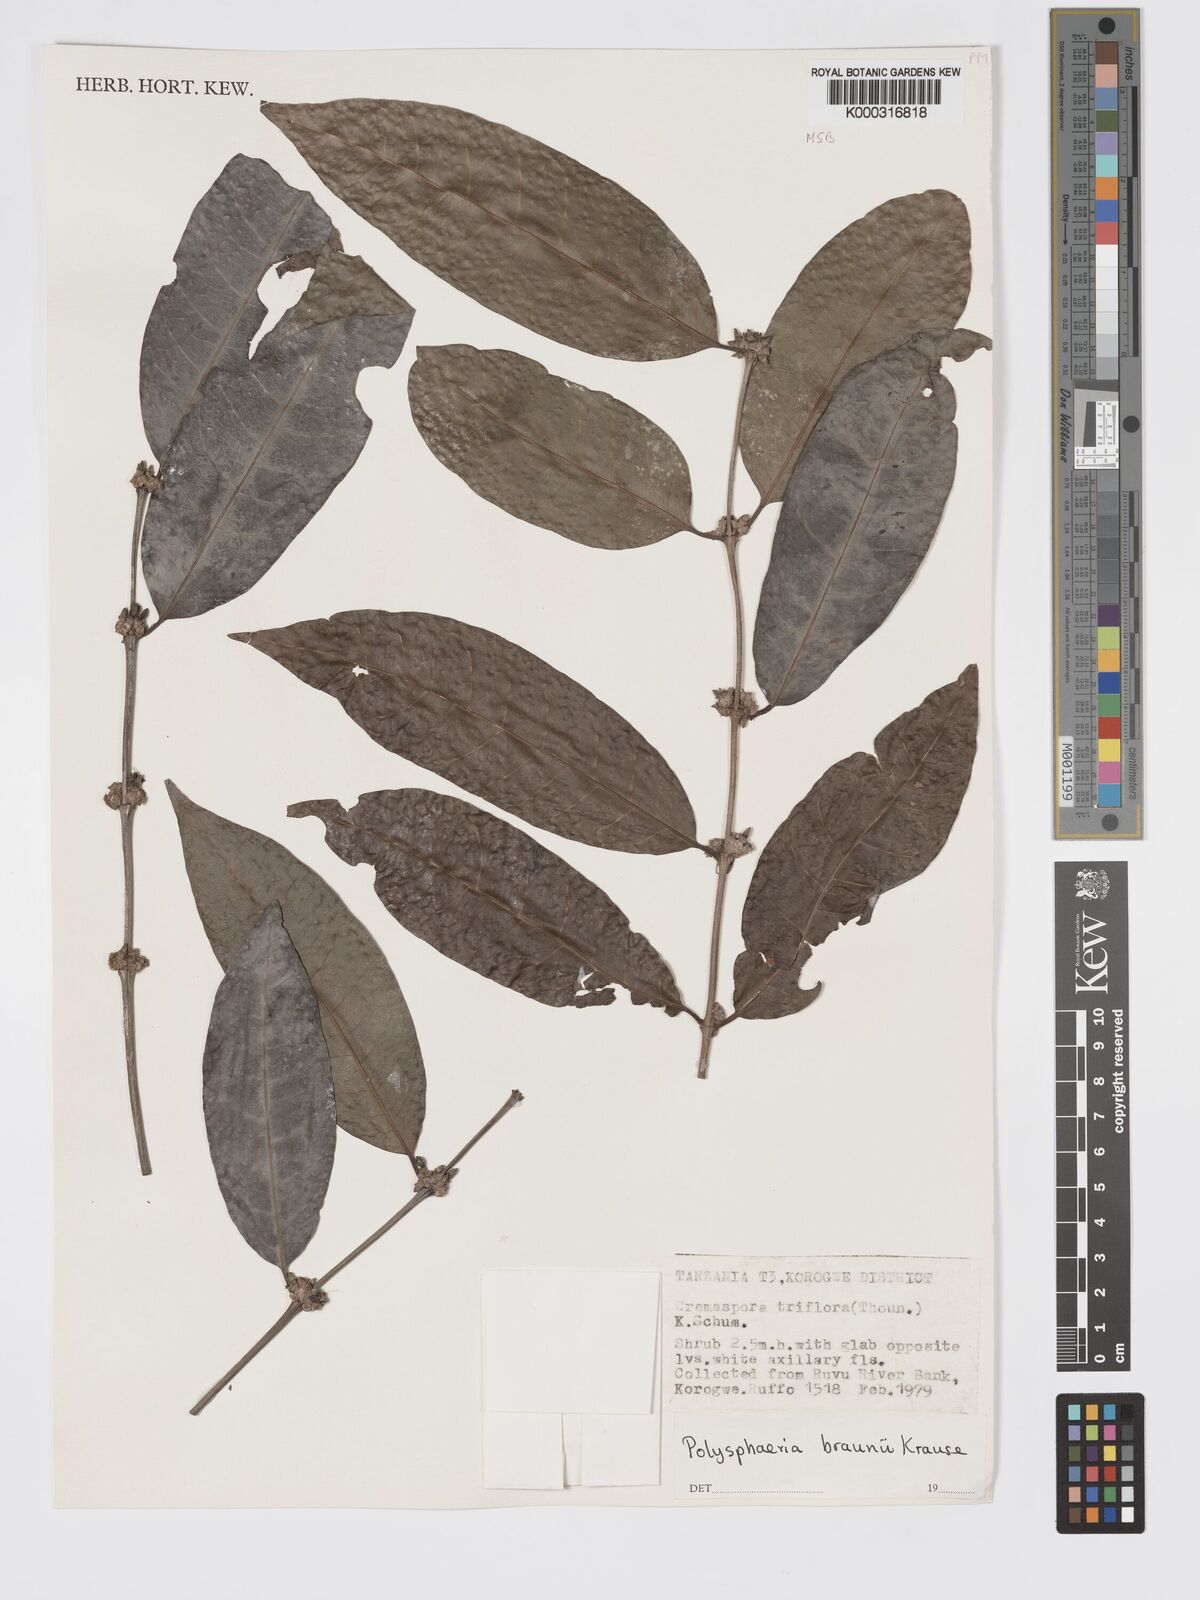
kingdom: Plantae
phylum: Tracheophyta
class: Magnoliopsida
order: Gentianales
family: Rubiaceae
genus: Polysphaeria
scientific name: Polysphaeria braunii
